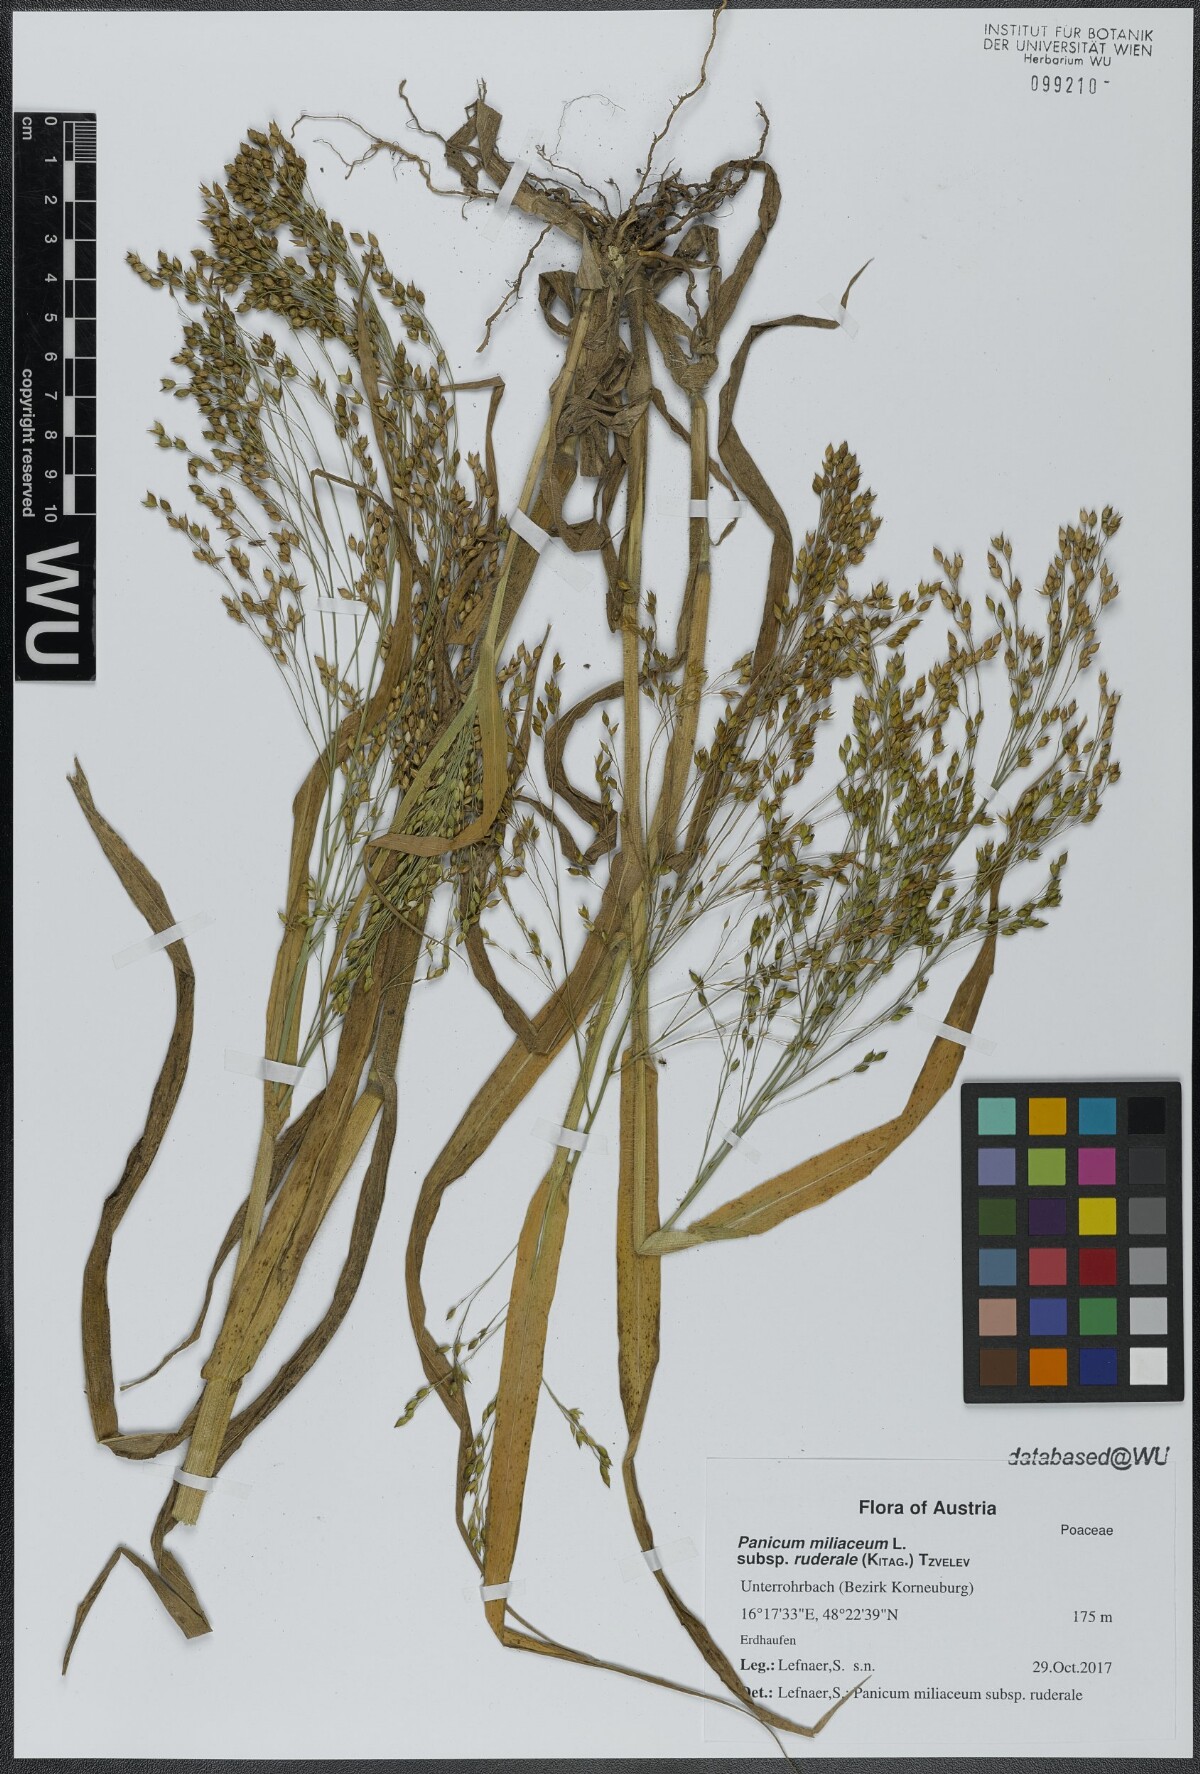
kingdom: Plantae
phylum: Tracheophyta
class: Liliopsida
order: Poales
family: Poaceae
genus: Panicum
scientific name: Panicum miliaceum
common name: Common millet
